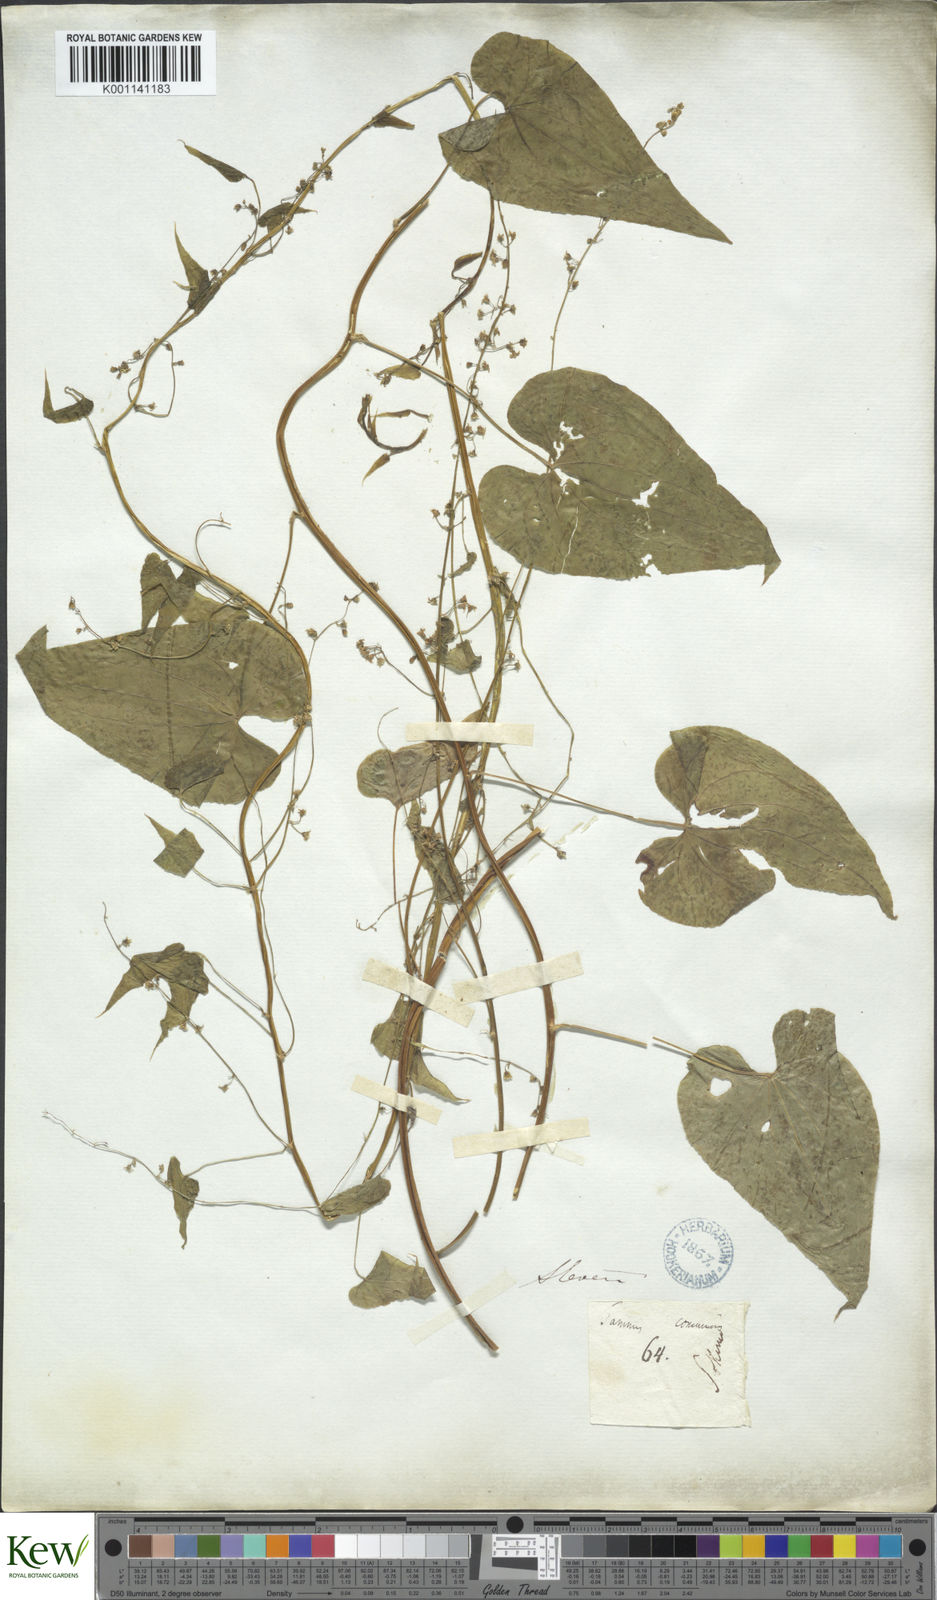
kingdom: Plantae
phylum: Tracheophyta
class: Liliopsida
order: Dioscoreales
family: Dioscoreaceae
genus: Dioscorea
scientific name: Dioscorea communis
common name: Black-bindweed
